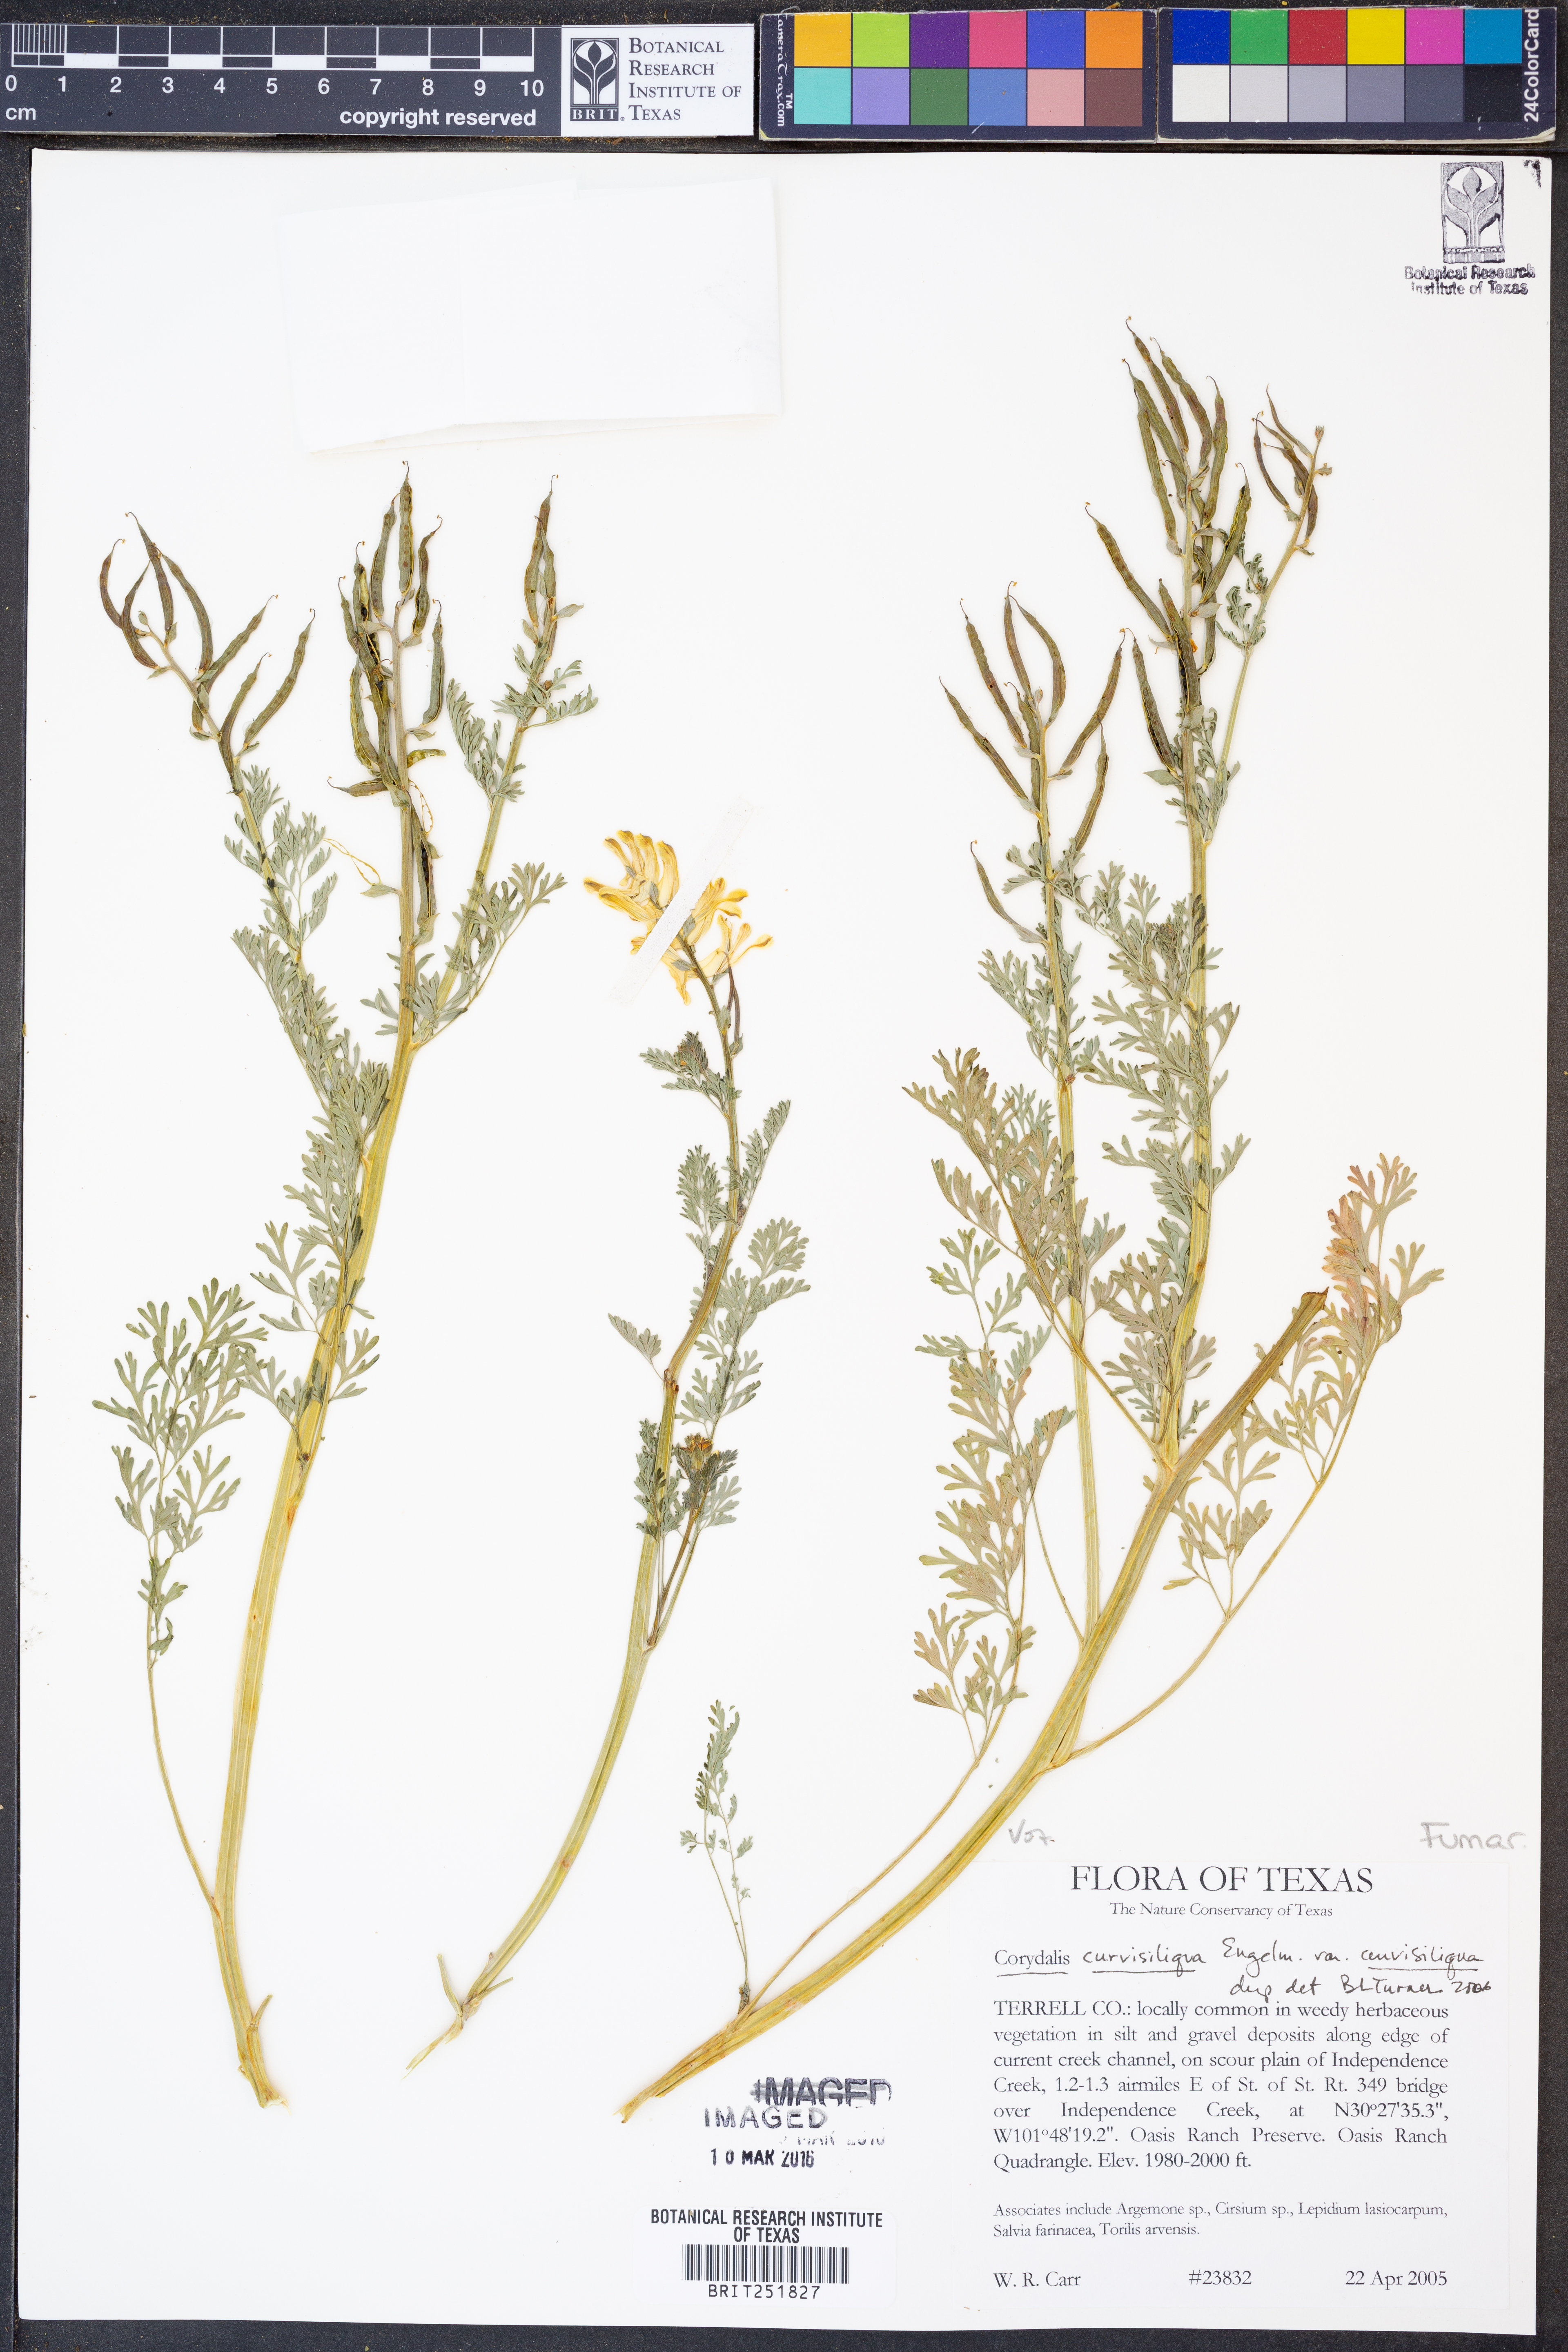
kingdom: Plantae
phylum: Tracheophyta
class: Magnoliopsida
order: Ranunculales
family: Papaveraceae
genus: Corydalis
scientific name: Corydalis curvisiliqua
